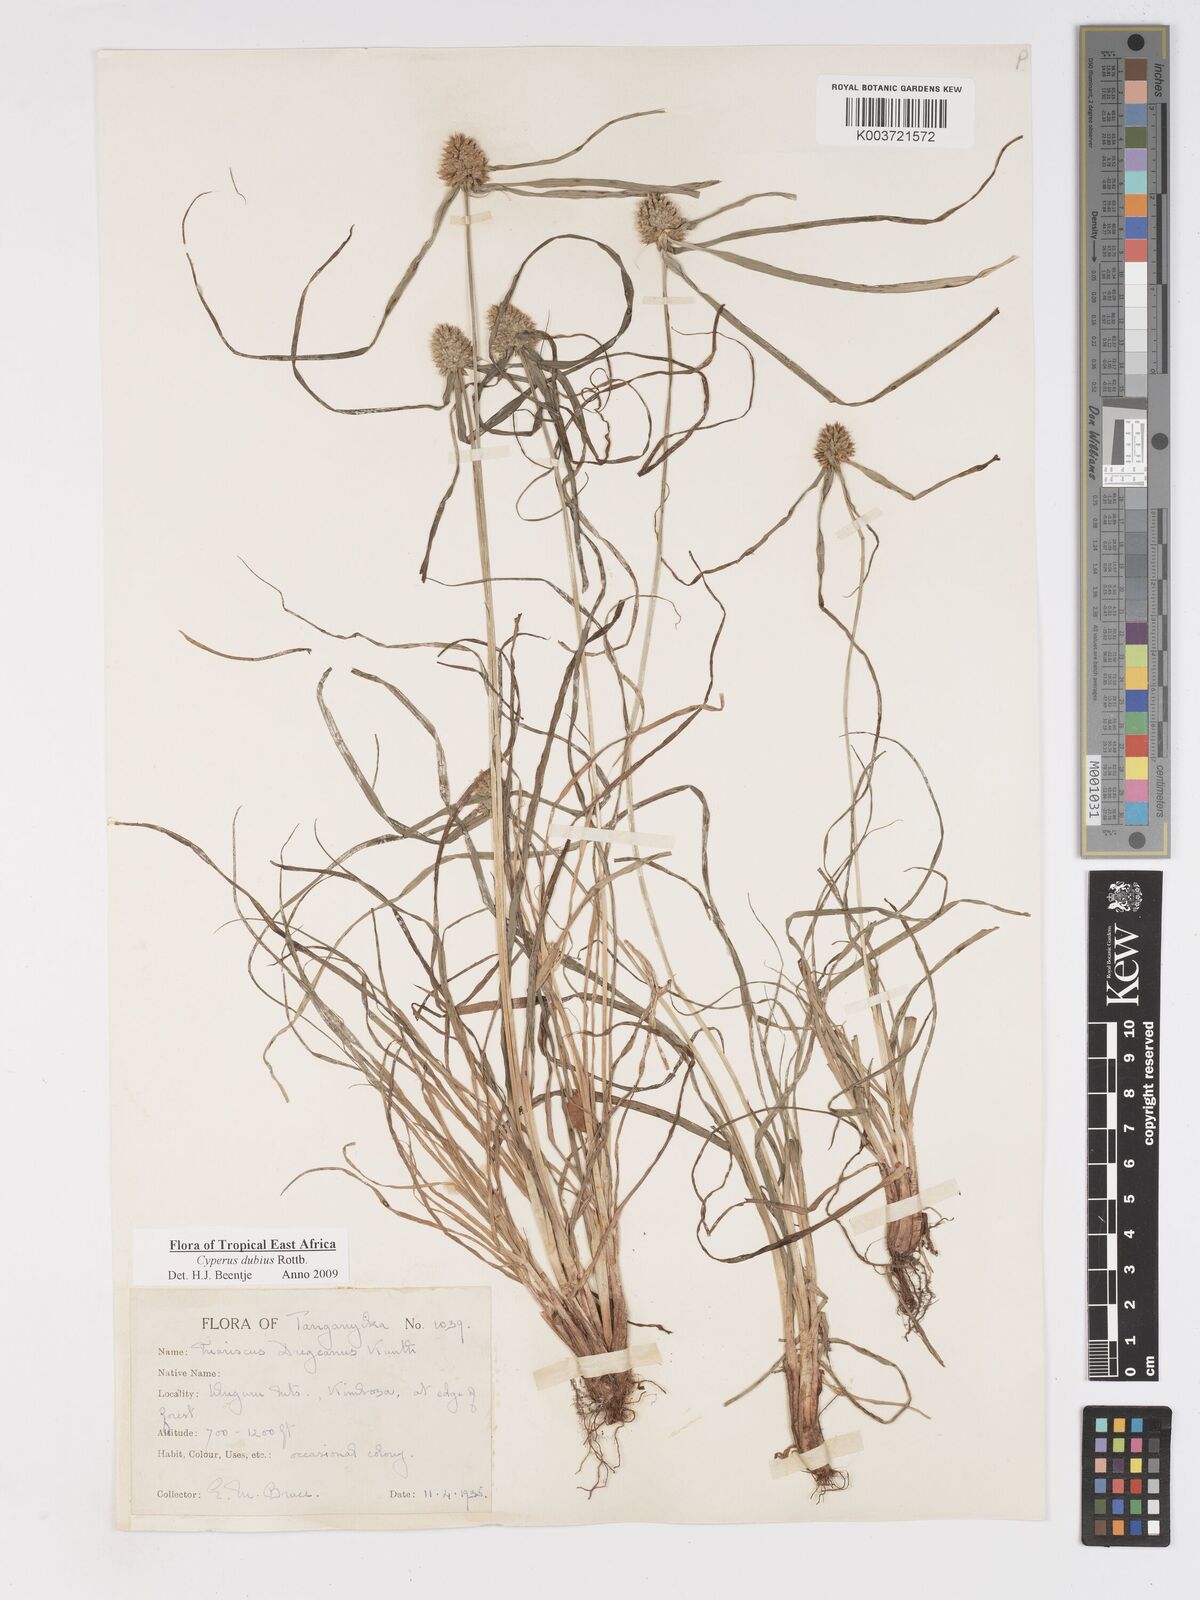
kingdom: Plantae
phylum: Tracheophyta
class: Liliopsida
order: Poales
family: Cyperaceae
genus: Cyperus
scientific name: Cyperus dubius
